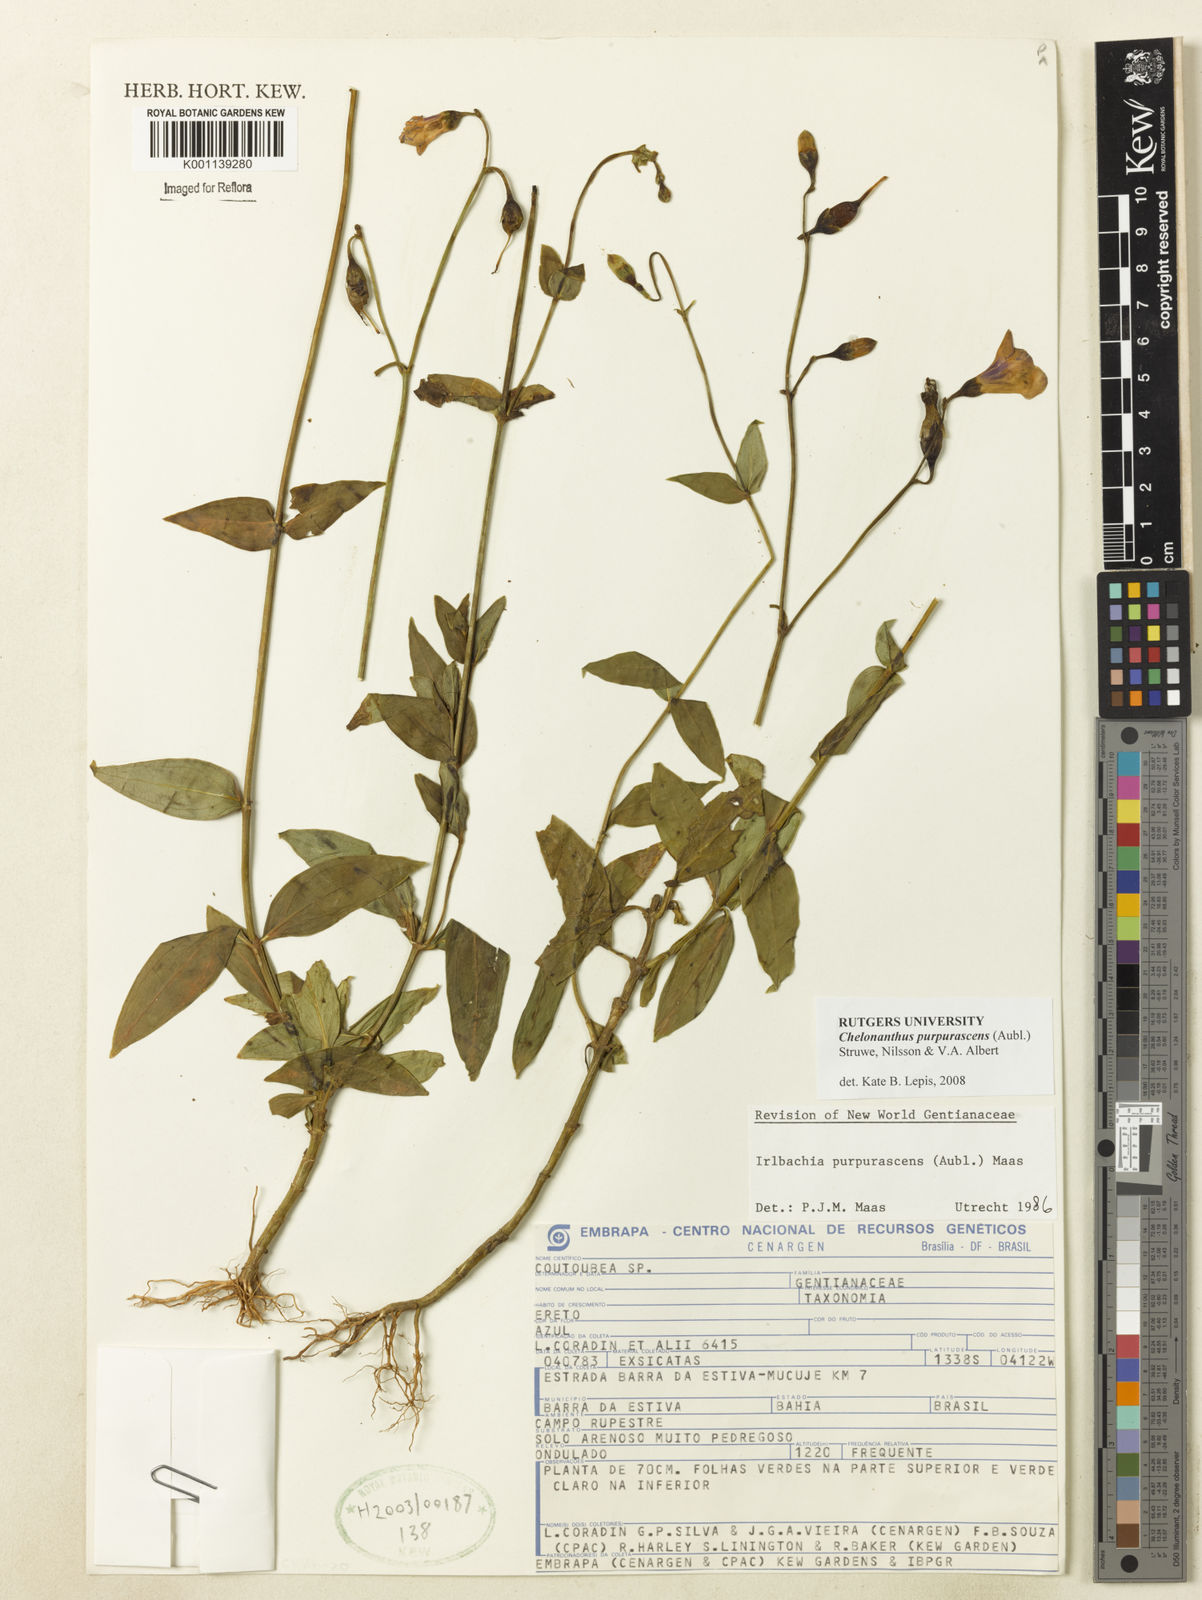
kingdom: Plantae
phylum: Tracheophyta
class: Magnoliopsida
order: Gentianales
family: Gentianaceae
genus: Chelonanthus
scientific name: Chelonanthus purpurascens
